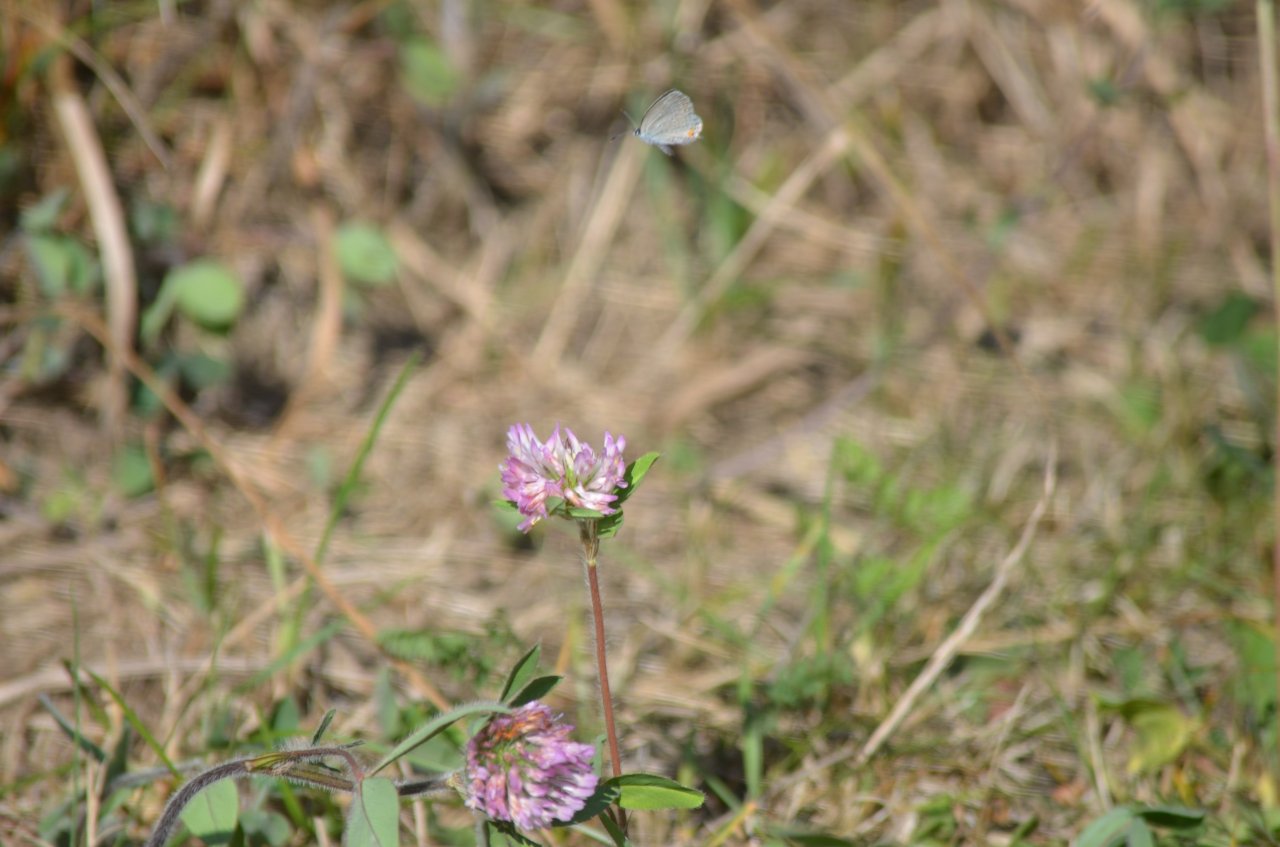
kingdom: Animalia
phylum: Arthropoda
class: Insecta
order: Lepidoptera
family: Lycaenidae
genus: Elkalyce
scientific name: Elkalyce comyntas
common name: Eastern Tailed-Blue
